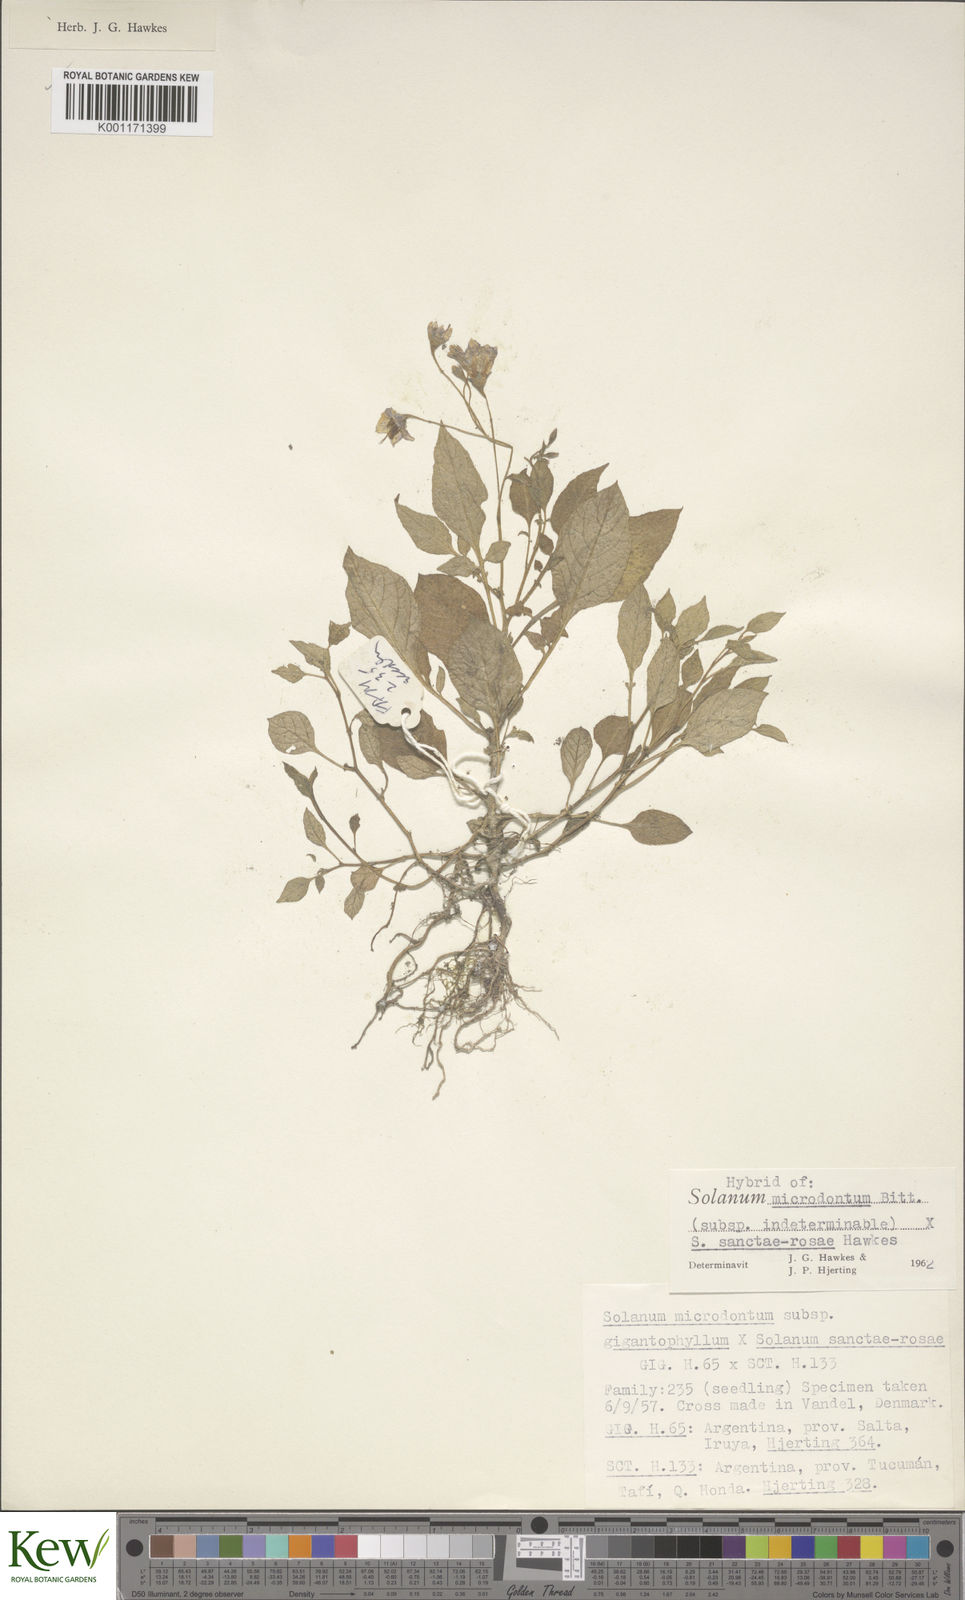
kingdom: Plantae
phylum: Tracheophyta
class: Magnoliopsida
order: Solanales
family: Solanaceae
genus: Solanum
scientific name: Solanum boliviense
